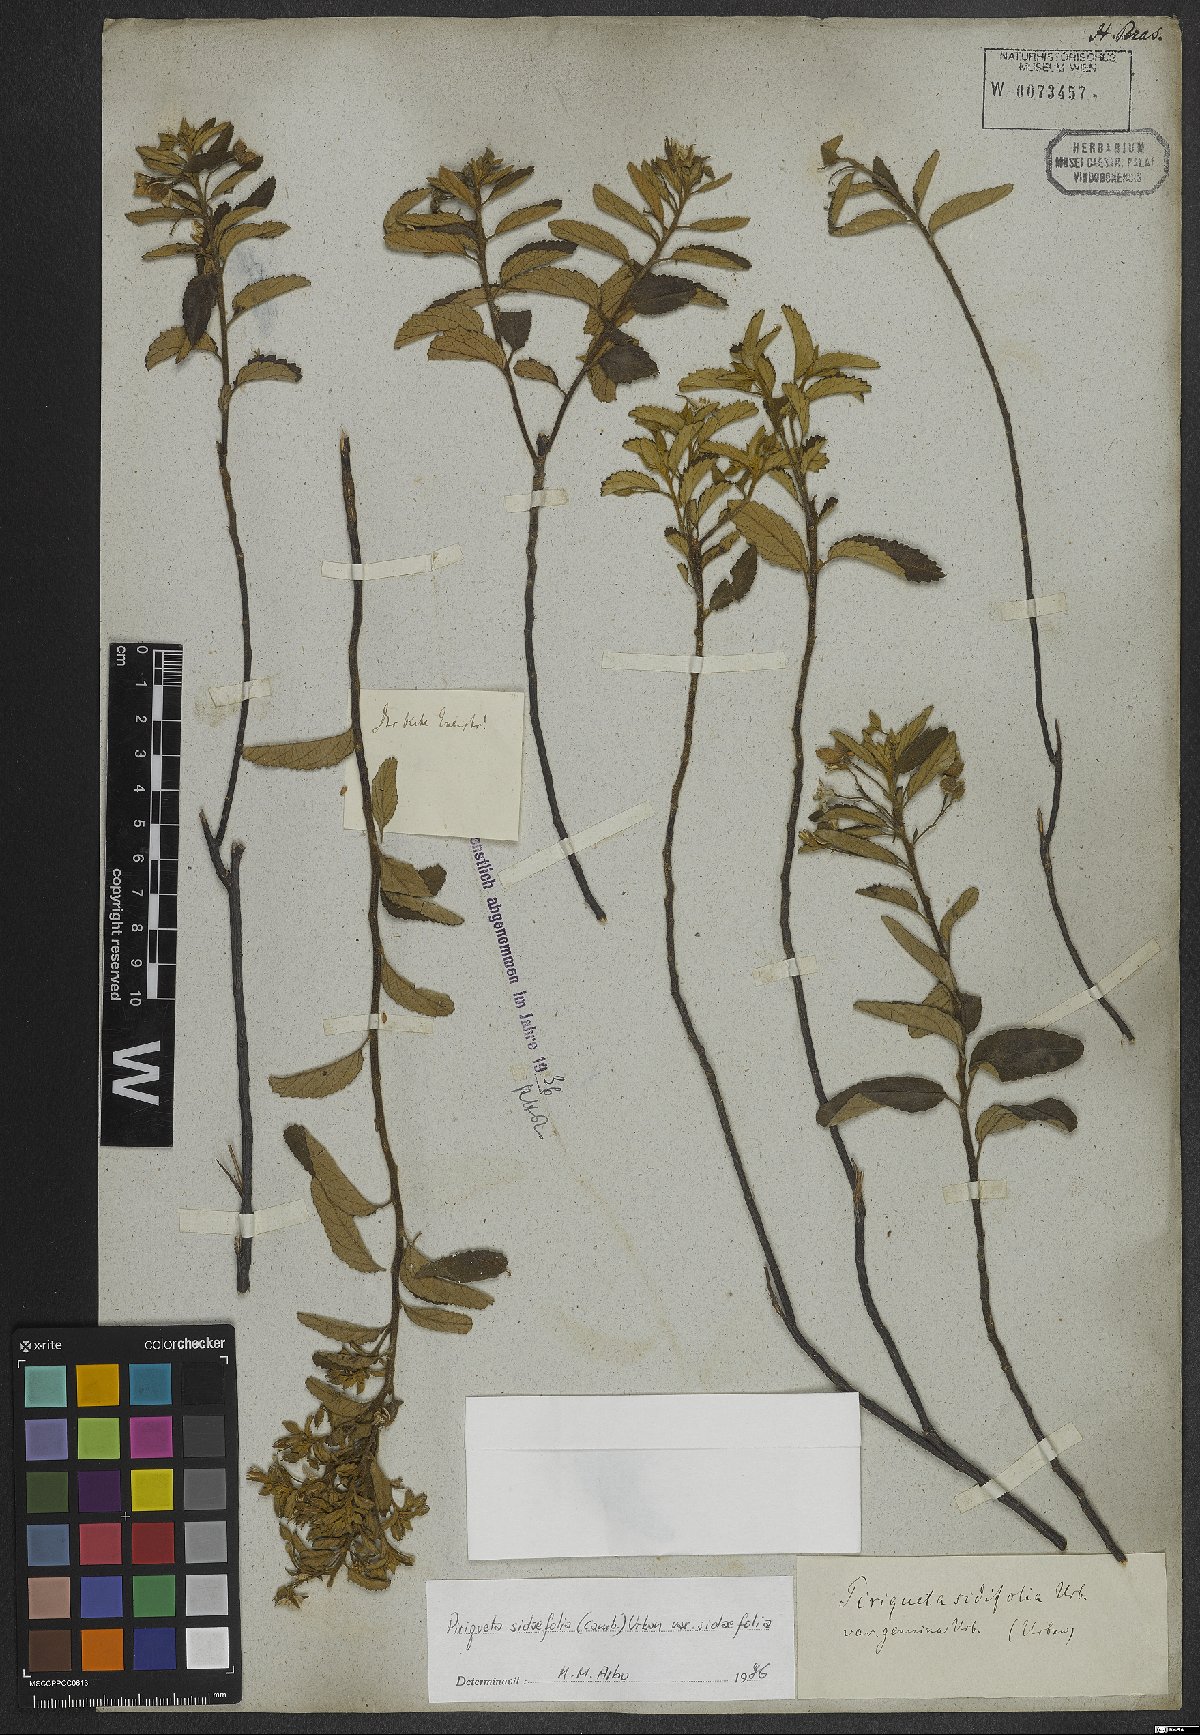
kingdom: Plantae
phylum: Tracheophyta
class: Magnoliopsida
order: Malpighiales
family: Turneraceae
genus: Piriqueta
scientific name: Piriqueta sidifolia
